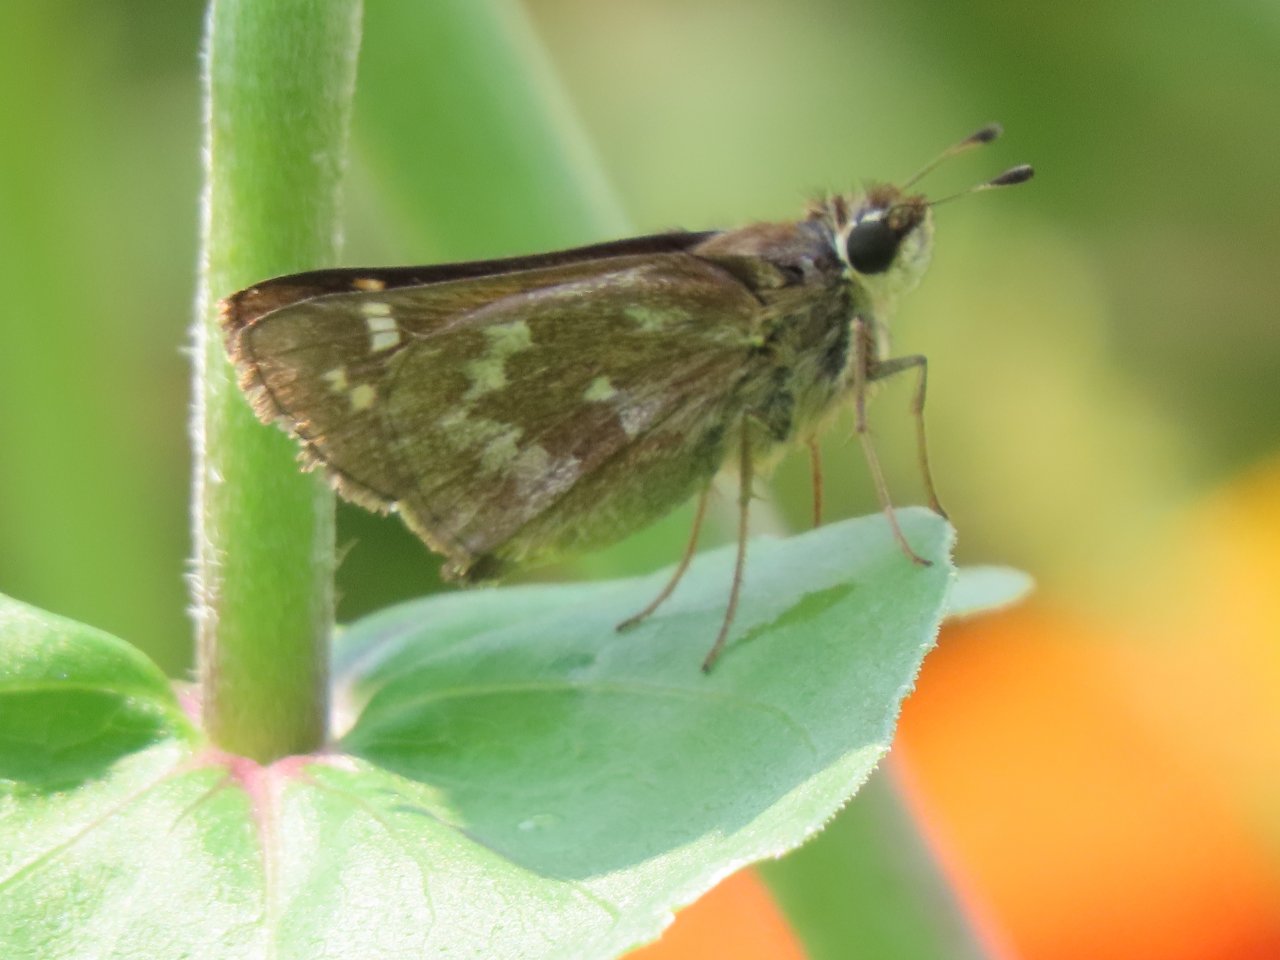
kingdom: Animalia
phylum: Arthropoda
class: Insecta
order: Lepidoptera
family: Hesperiidae
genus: Vernia
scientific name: Vernia verna
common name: Little Glassywing
